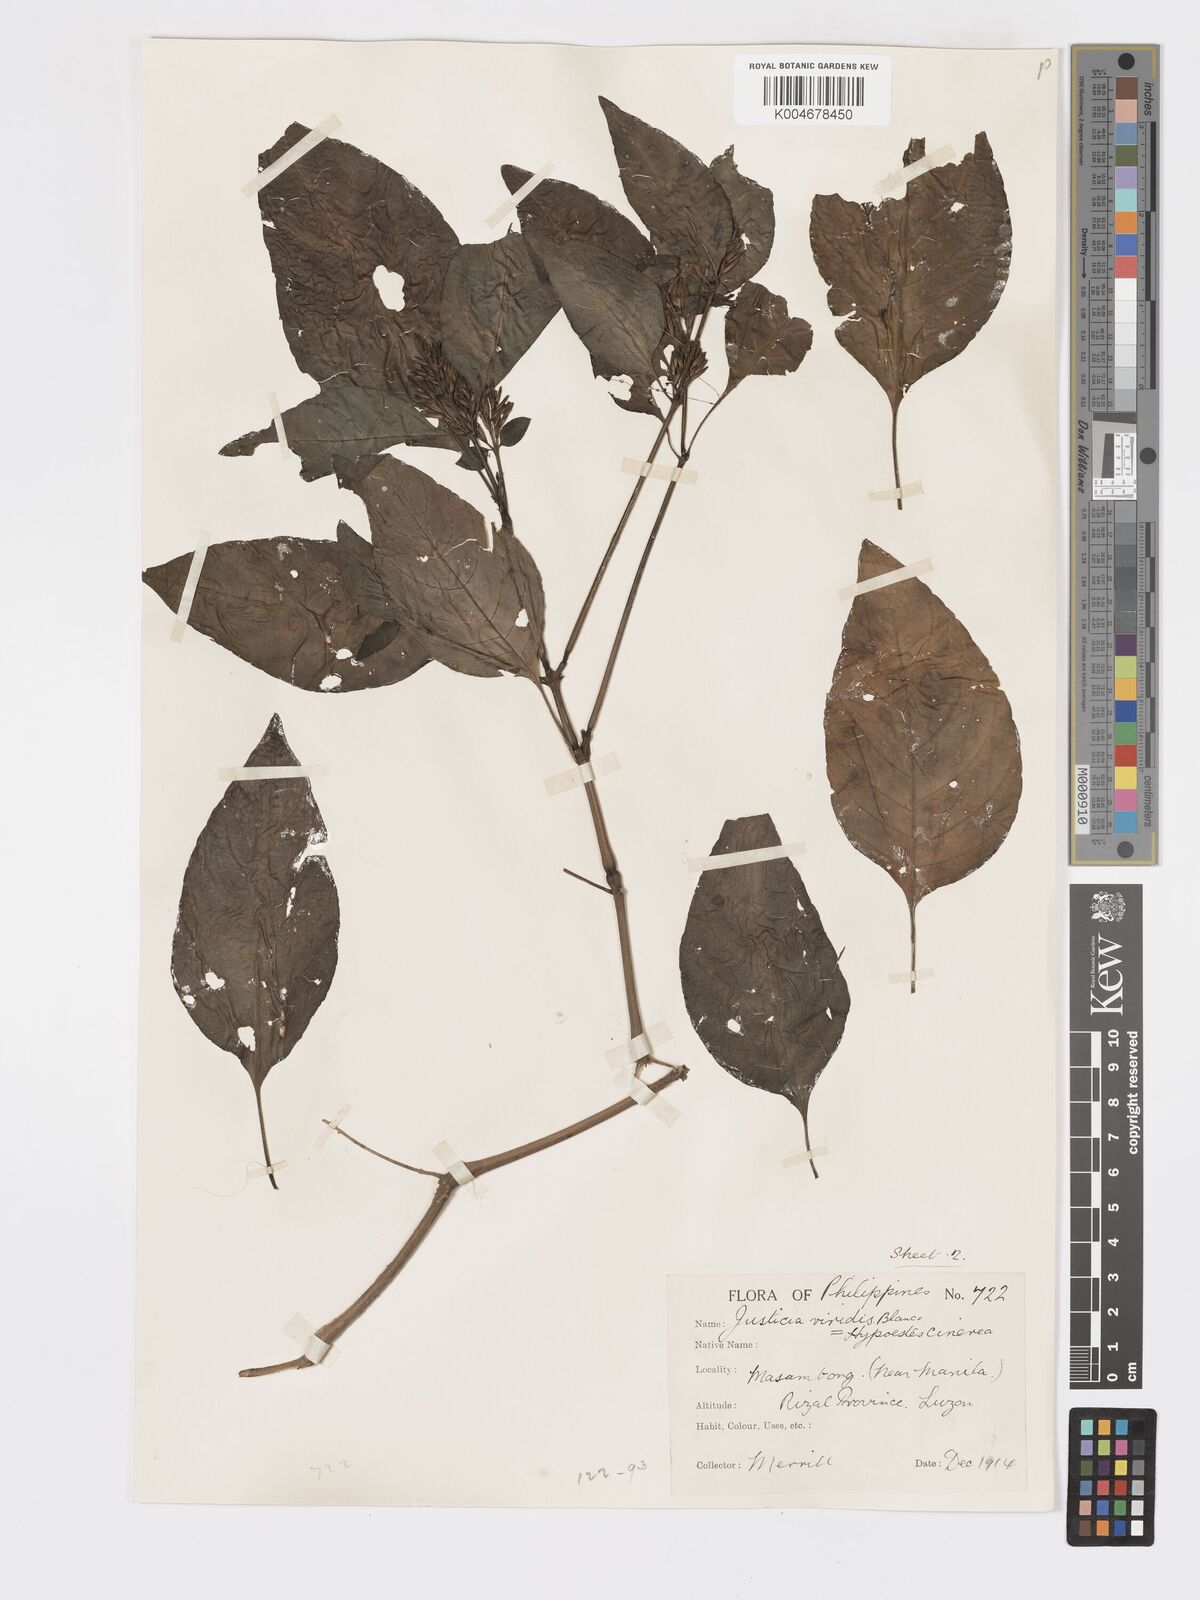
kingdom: Plantae
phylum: Tracheophyta
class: Magnoliopsida
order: Lamiales
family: Acanthaceae
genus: Hypoestes
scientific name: Hypoestes
